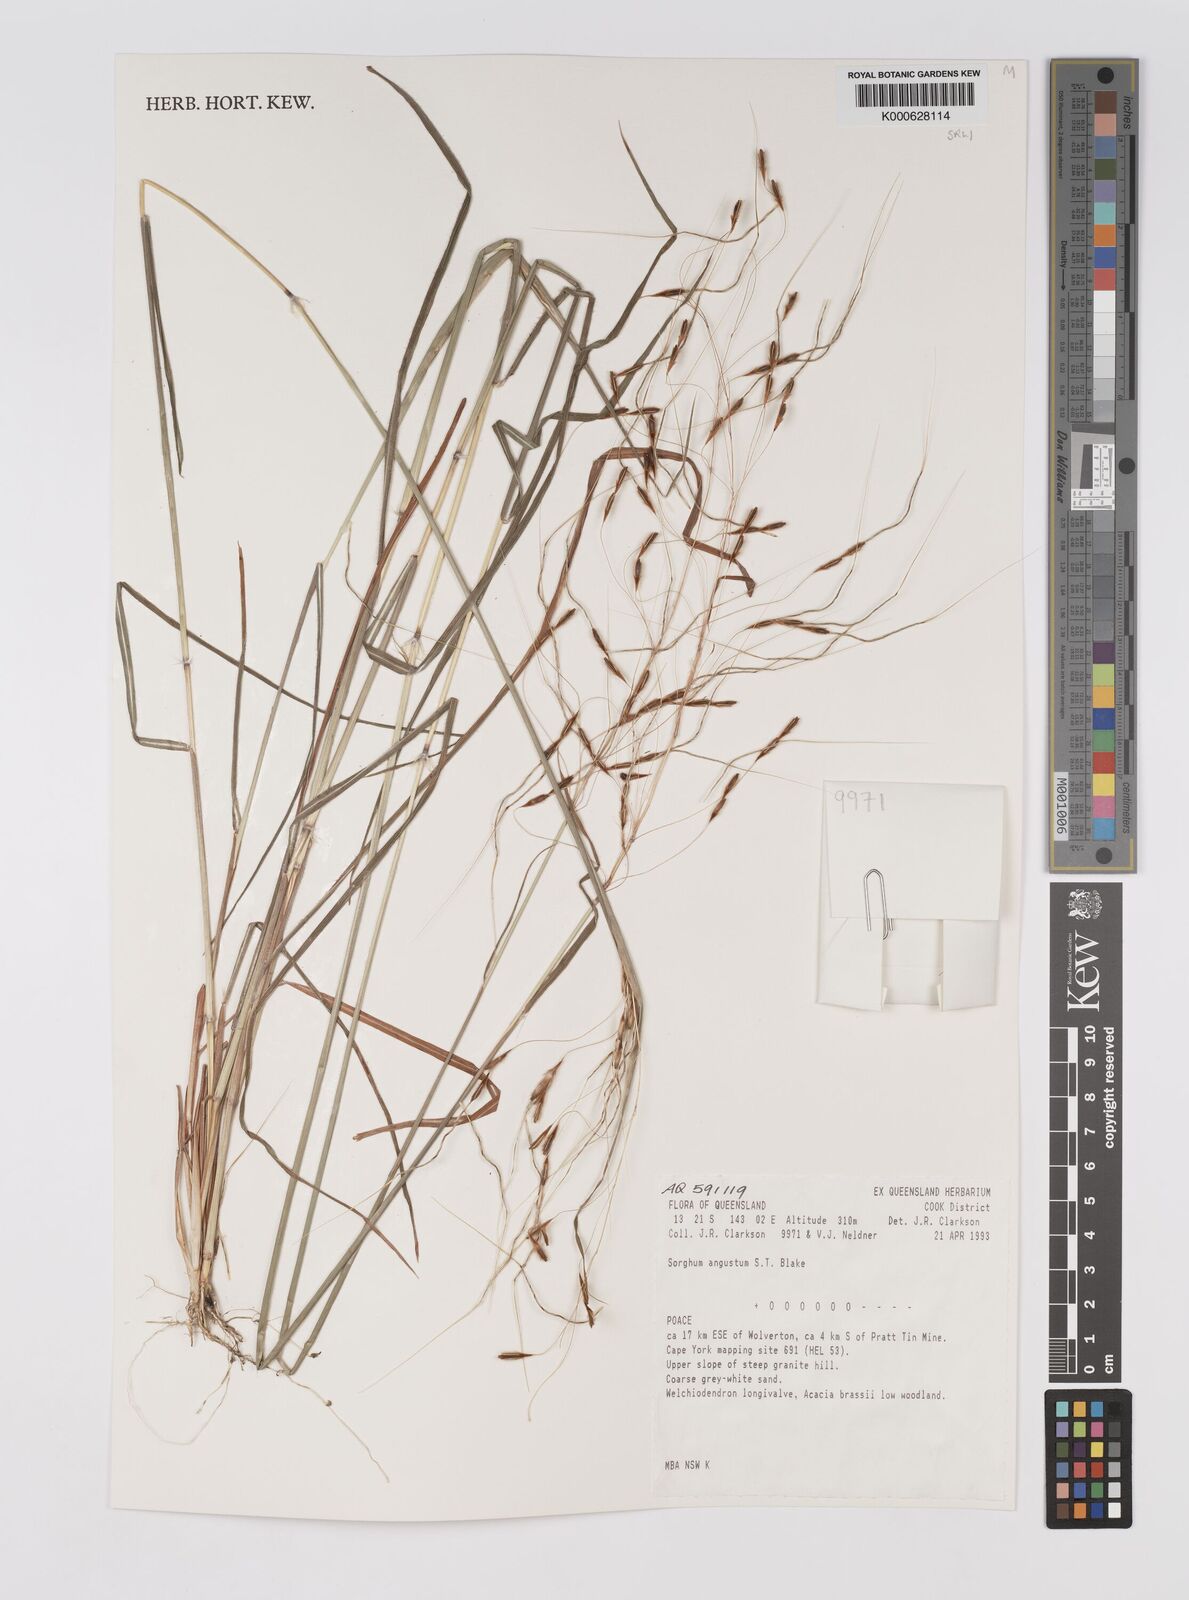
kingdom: Plantae
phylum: Tracheophyta
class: Liliopsida
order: Poales
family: Poaceae
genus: Sarga
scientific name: Sarga angusta
